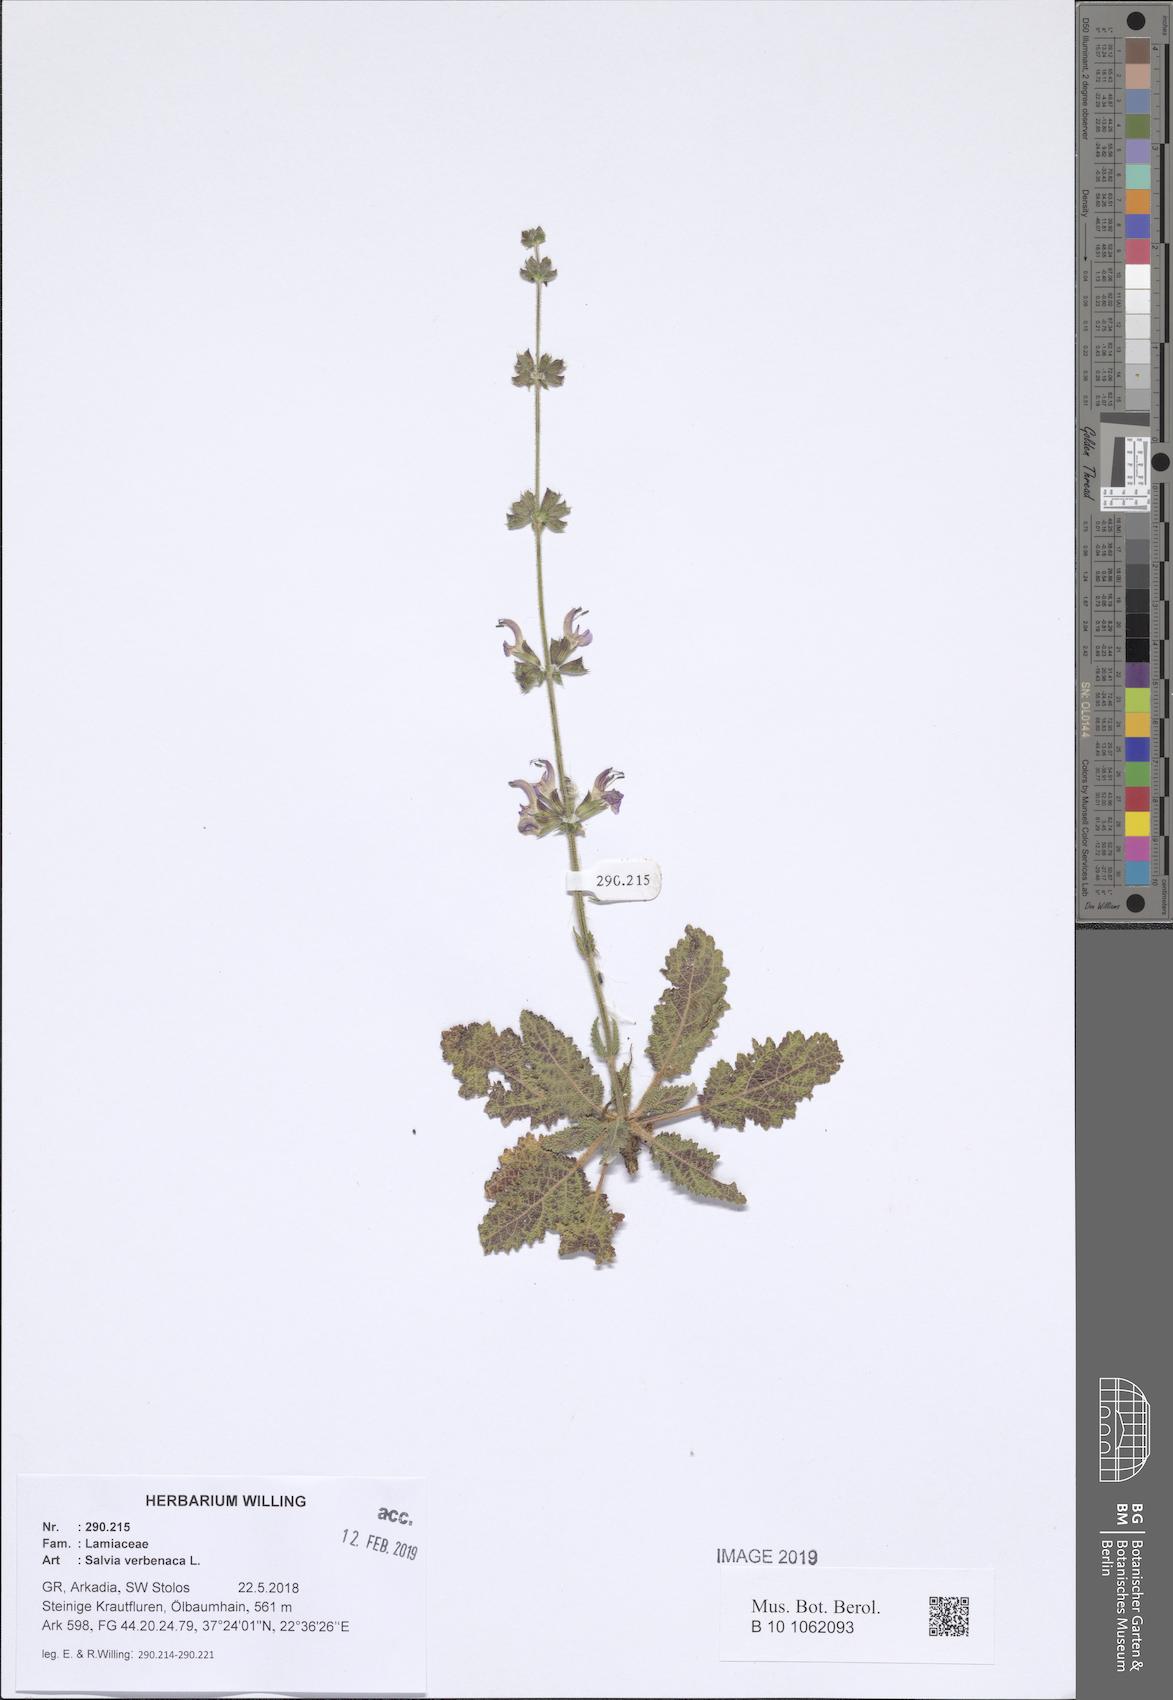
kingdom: Plantae
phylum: Tracheophyta
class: Magnoliopsida
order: Lamiales
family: Lamiaceae
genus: Salvia
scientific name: Salvia verbenaca
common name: Wild clary
